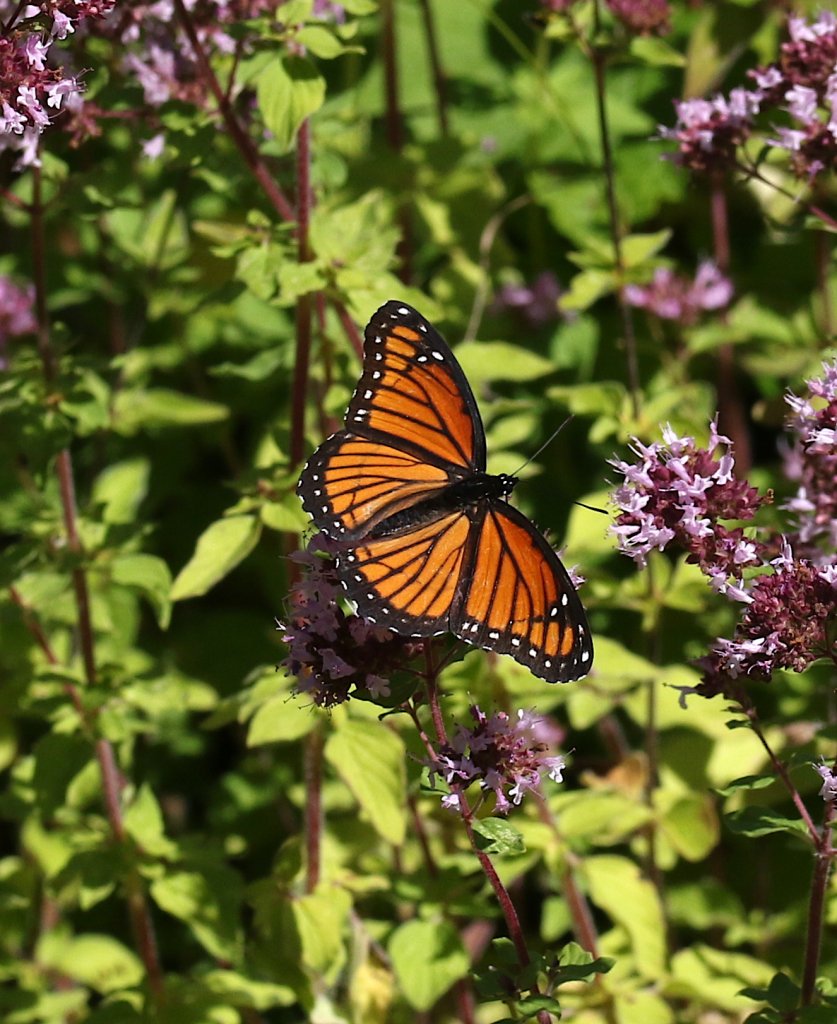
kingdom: Animalia
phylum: Arthropoda
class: Insecta
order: Lepidoptera
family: Nymphalidae
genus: Limenitis
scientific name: Limenitis archippus
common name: Viceroy
